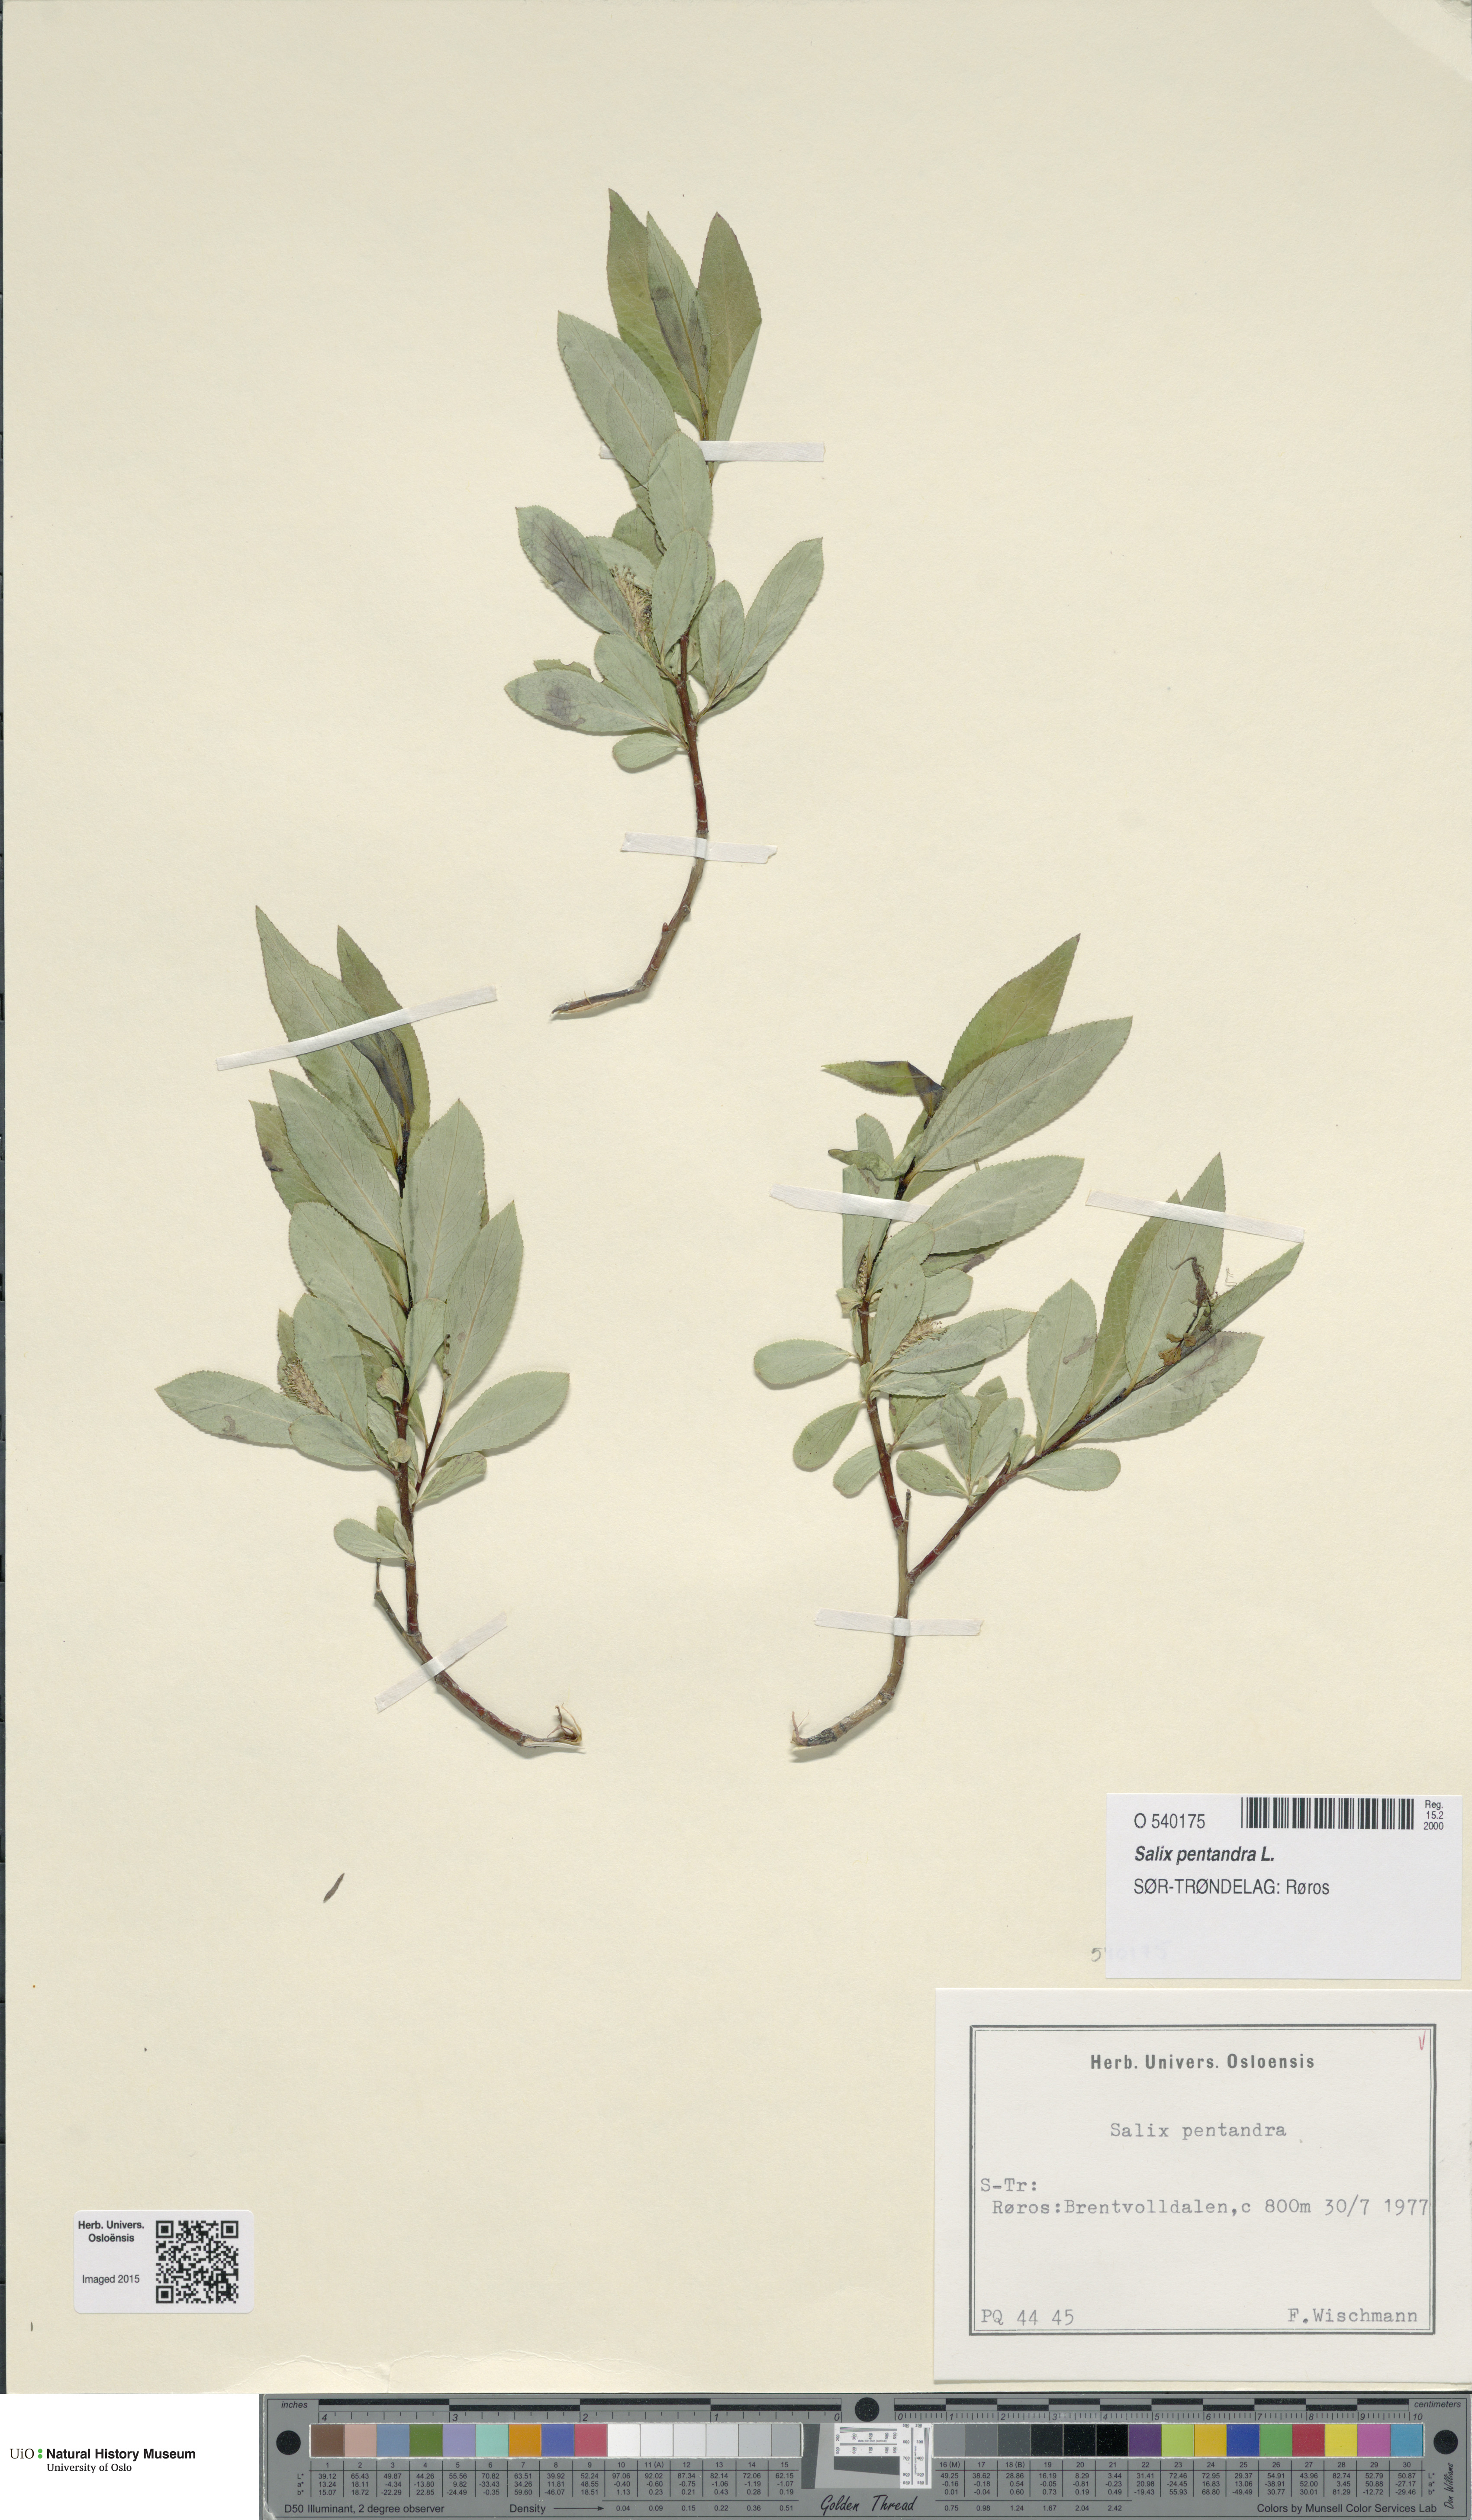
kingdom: Plantae
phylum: Tracheophyta
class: Magnoliopsida
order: Malpighiales
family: Salicaceae
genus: Salix
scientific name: Salix pentandra
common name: Bay willow
